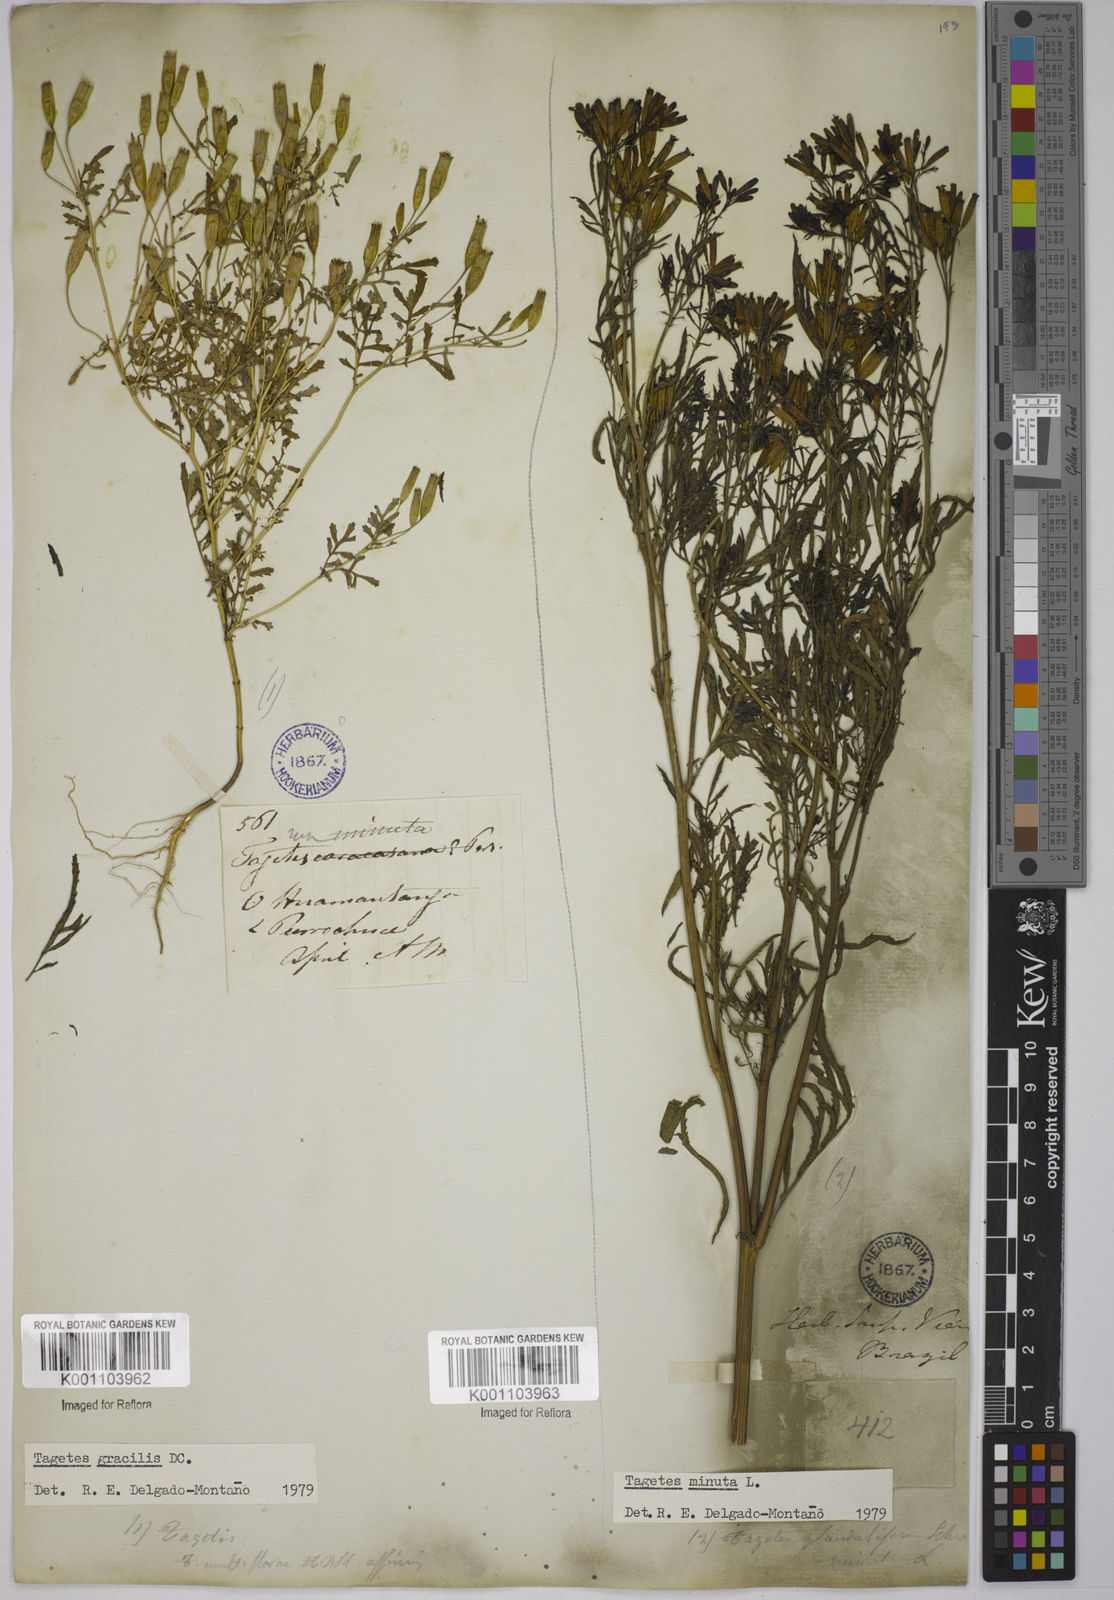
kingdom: Plantae
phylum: Tracheophyta
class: Magnoliopsida
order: Asterales
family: Asteraceae
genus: Tagetes
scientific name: Tagetes minuta
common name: Muster john henry
